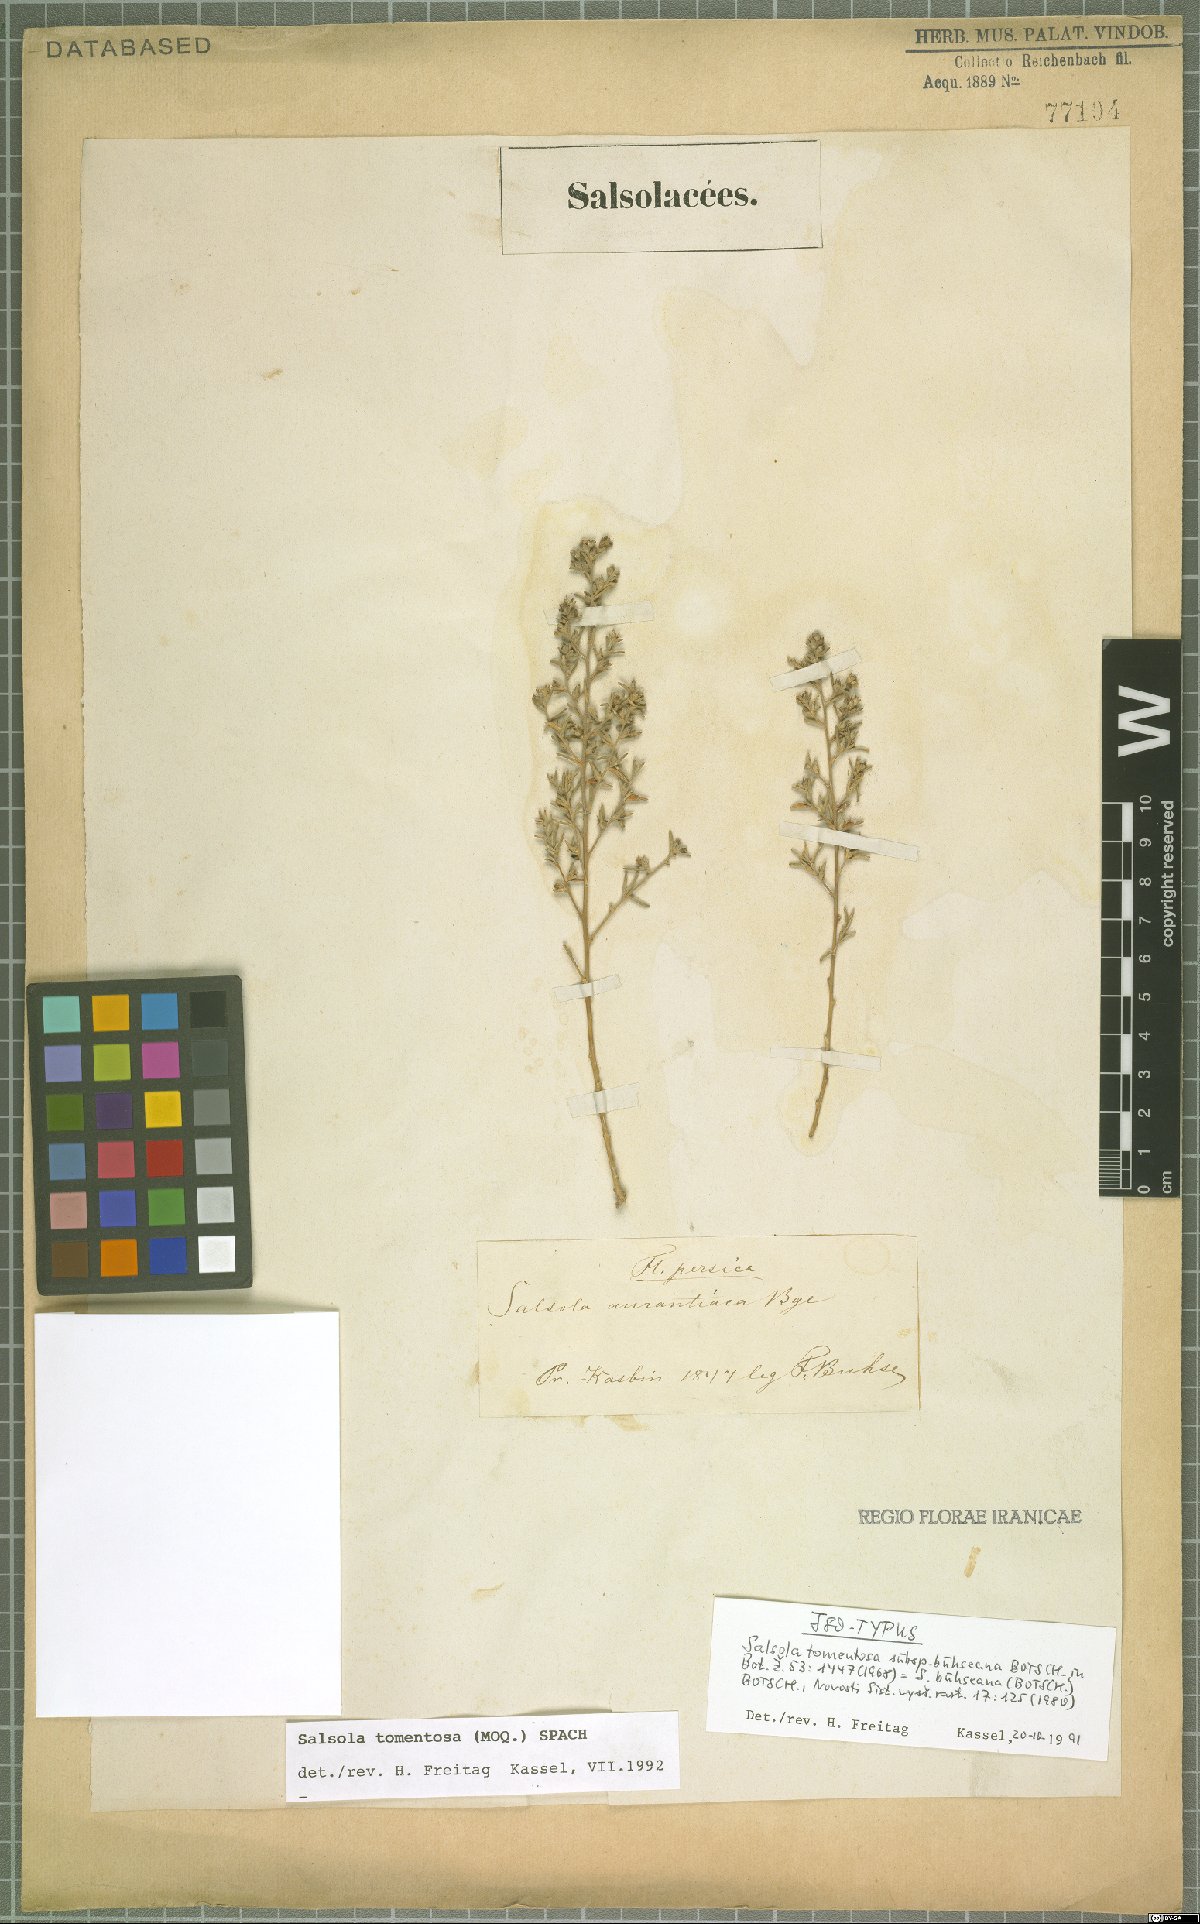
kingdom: Plantae
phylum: Tracheophyta
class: Magnoliopsida
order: Caryophyllales
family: Amaranthaceae
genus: Kaviria
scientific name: Kaviria tomentosa
